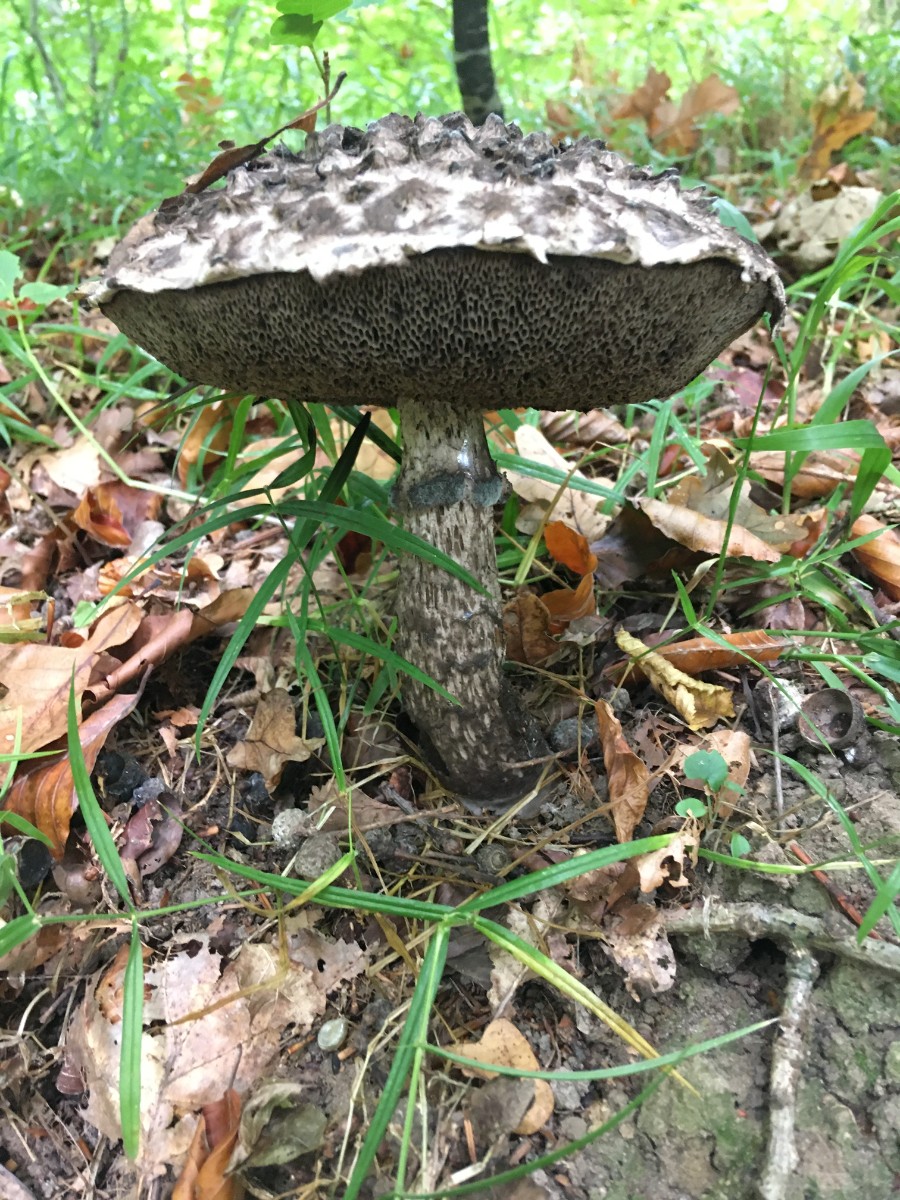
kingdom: Fungi
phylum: Basidiomycota
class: Agaricomycetes
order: Boletales
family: Boletaceae
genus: Strobilomyces
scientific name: Strobilomyces strobilaceus
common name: koglerørhat
